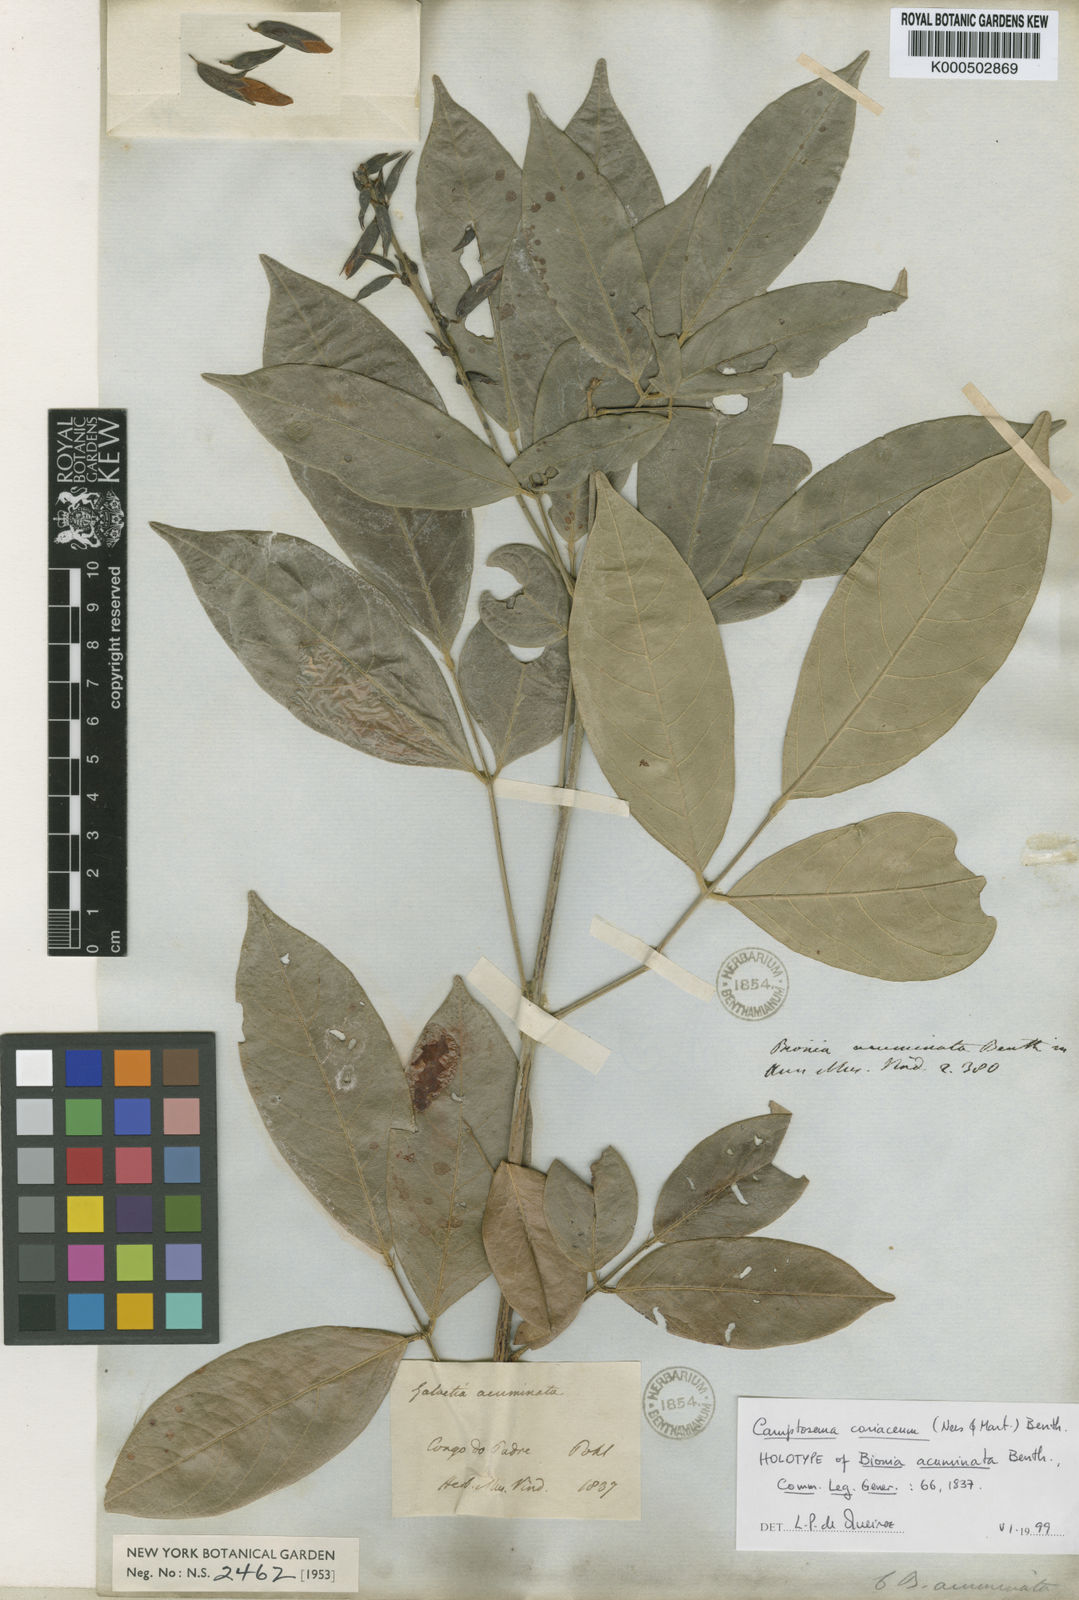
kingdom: Plantae
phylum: Tracheophyta
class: Magnoliopsida
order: Fabales
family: Fabaceae
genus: Camptosema
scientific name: Camptosema coriaceum
